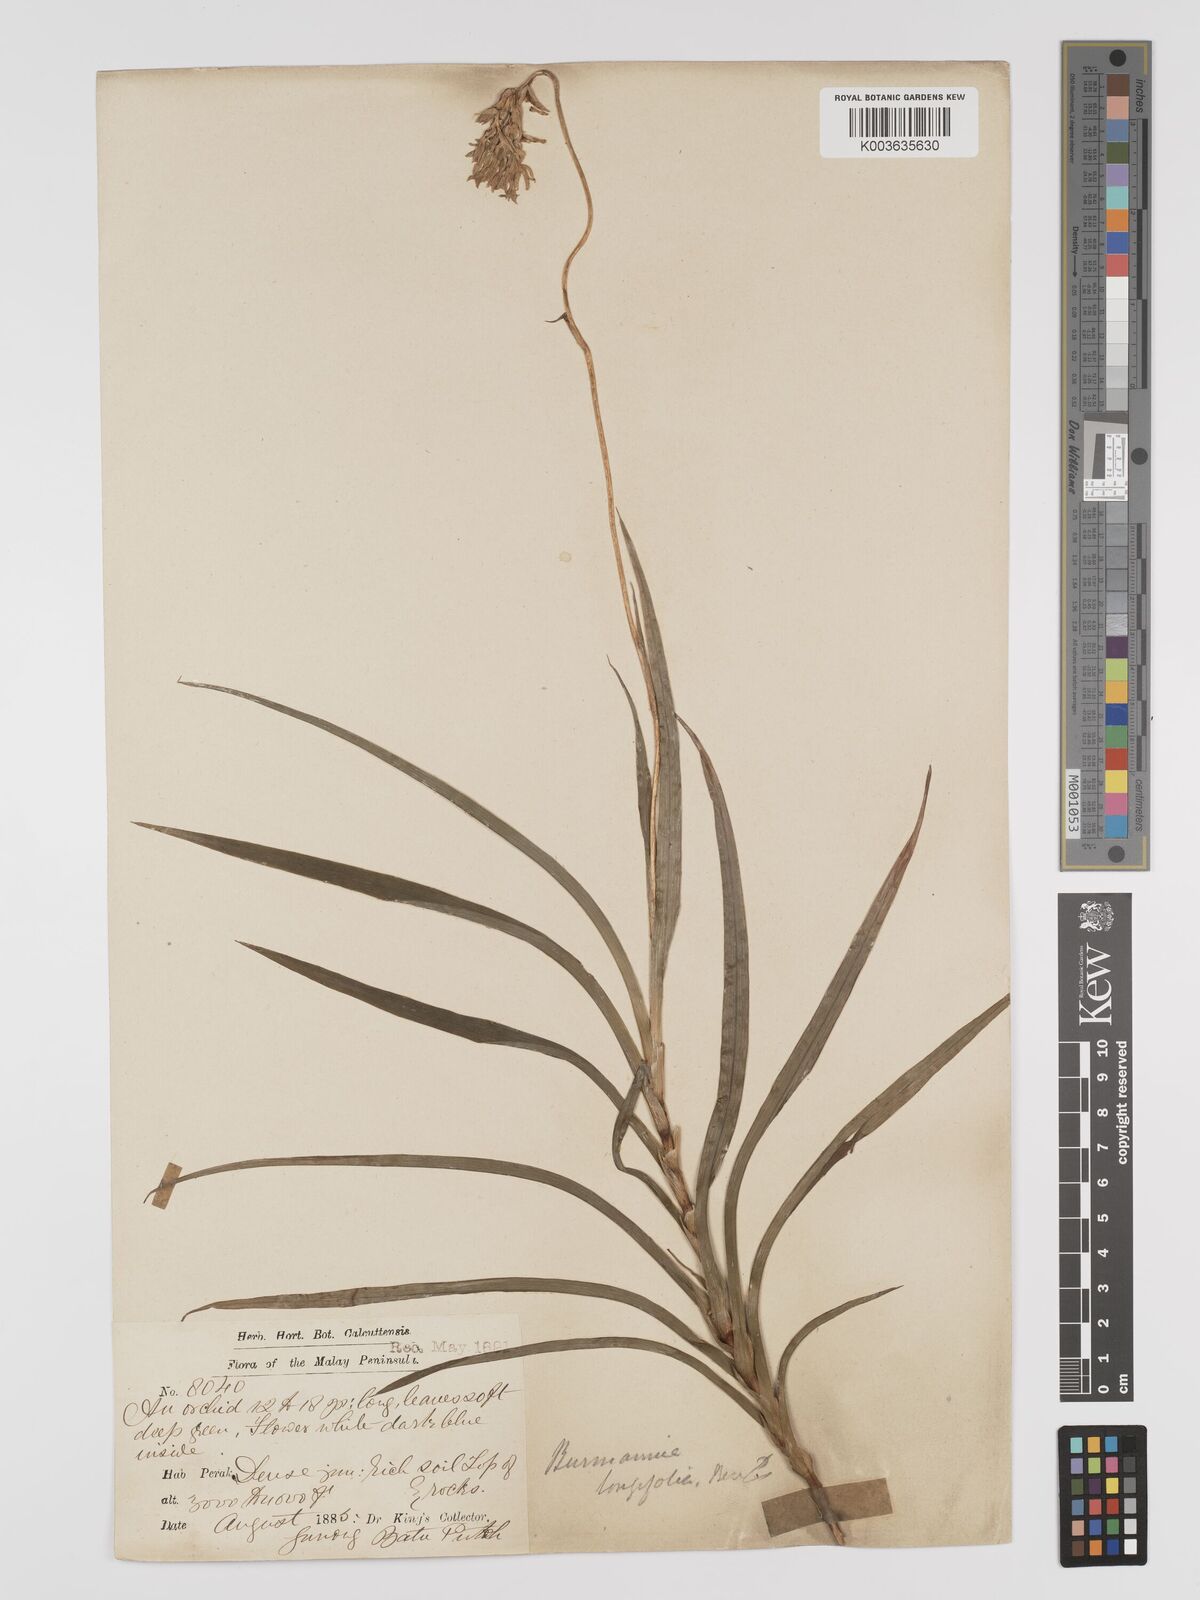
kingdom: Plantae
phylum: Tracheophyta
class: Liliopsida
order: Dioscoreales
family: Burmanniaceae
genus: Burmannia
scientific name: Burmannia longifolia
